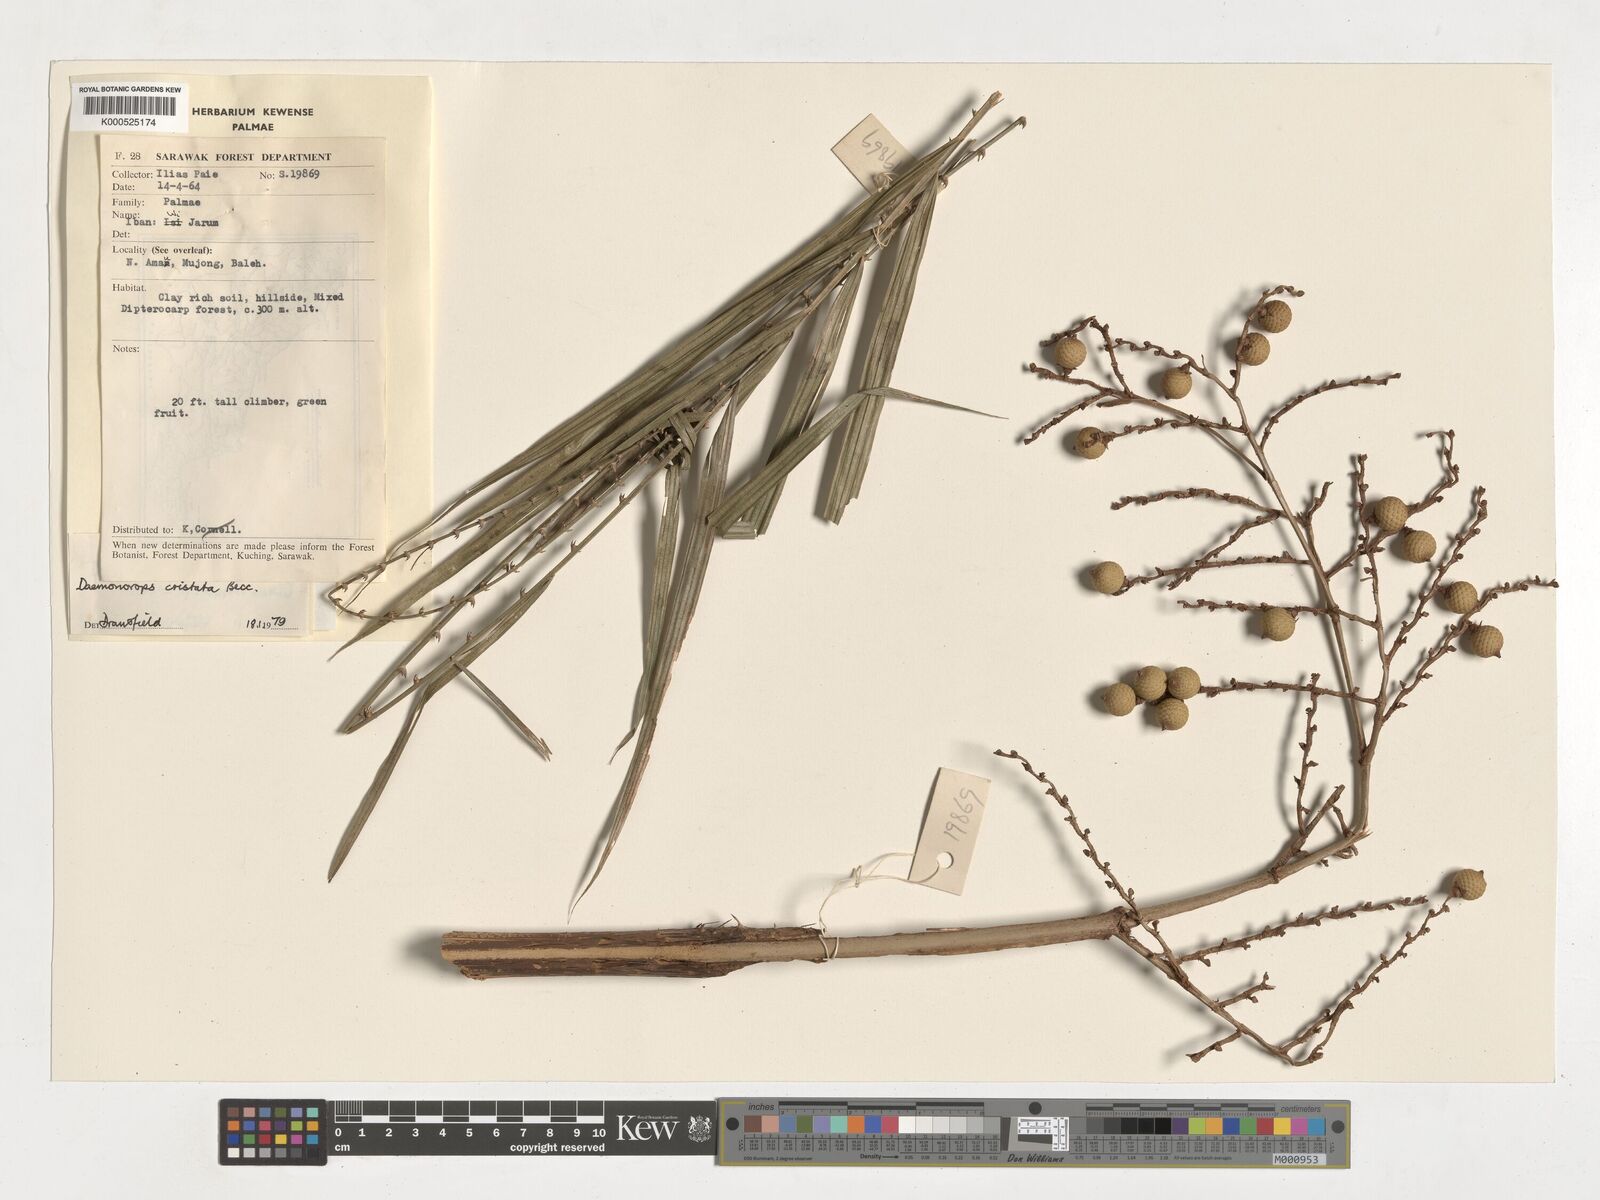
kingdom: Plantae
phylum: Tracheophyta
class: Liliopsida
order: Arecales
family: Arecaceae
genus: Calamus
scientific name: Calamus cristatus
